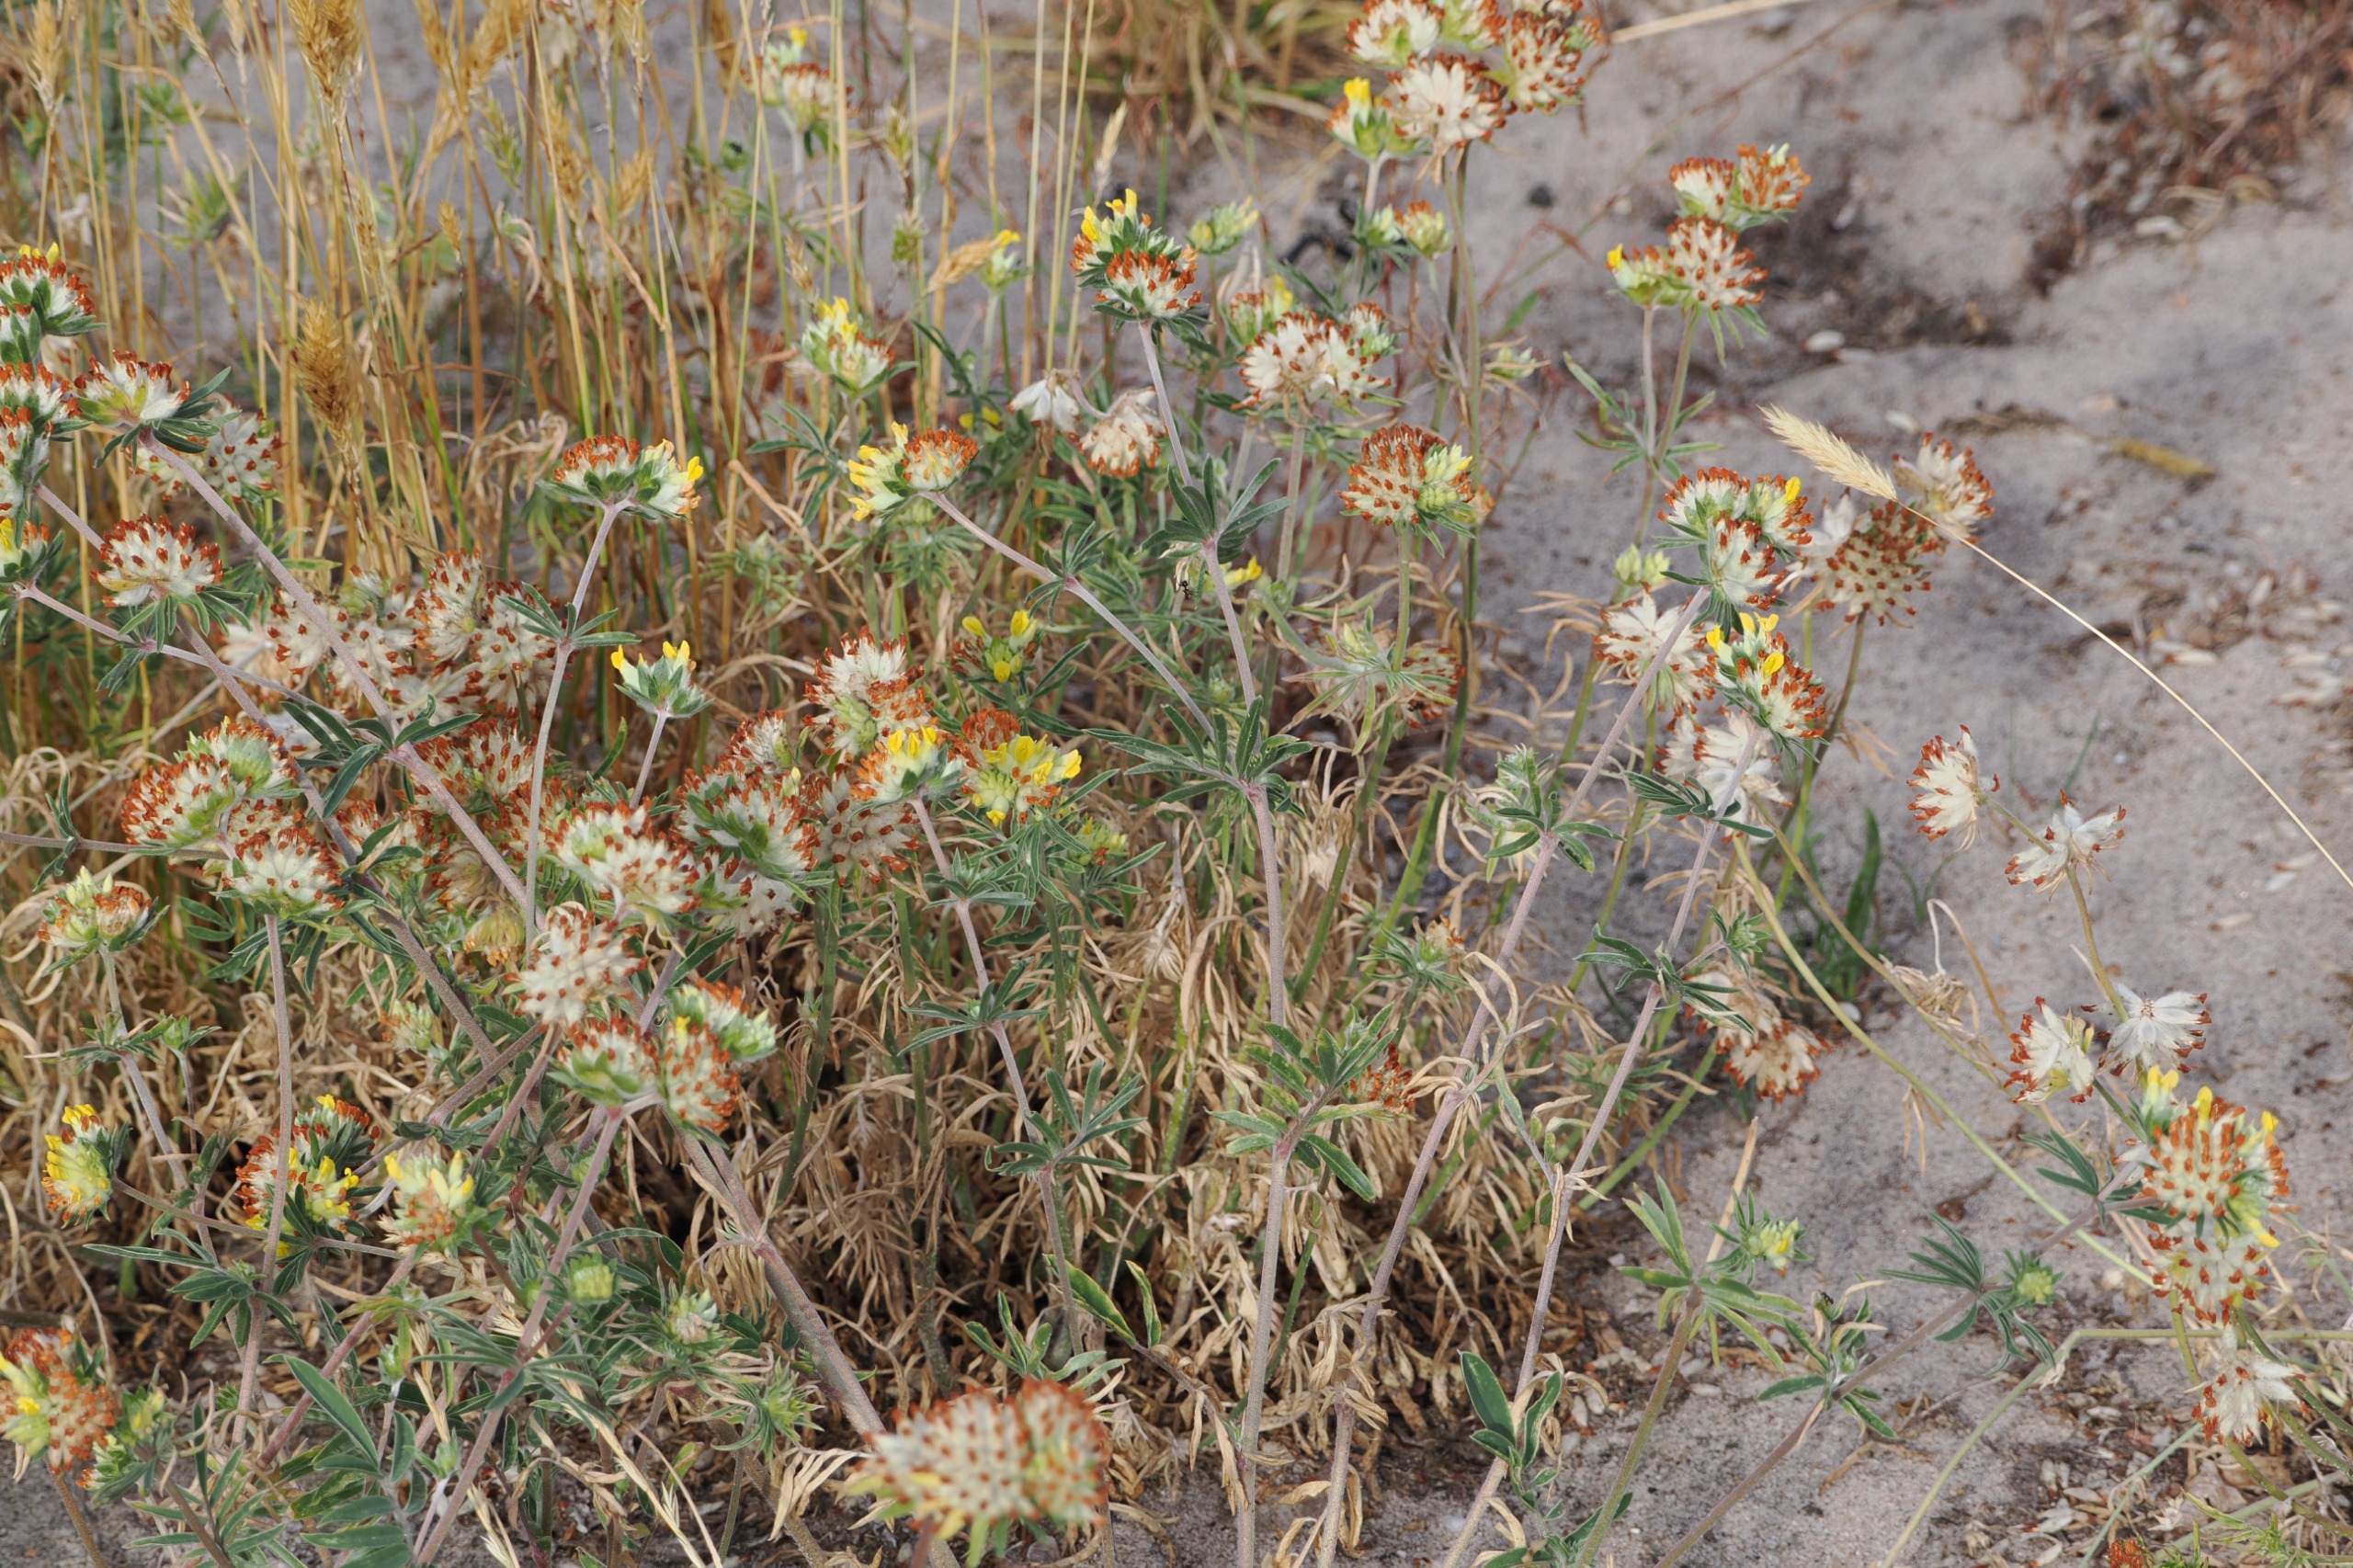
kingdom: Plantae
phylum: Tracheophyta
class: Magnoliopsida
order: Fabales
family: Fabaceae
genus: Anthyllis
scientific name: Anthyllis vulneraria
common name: Rundbælg
